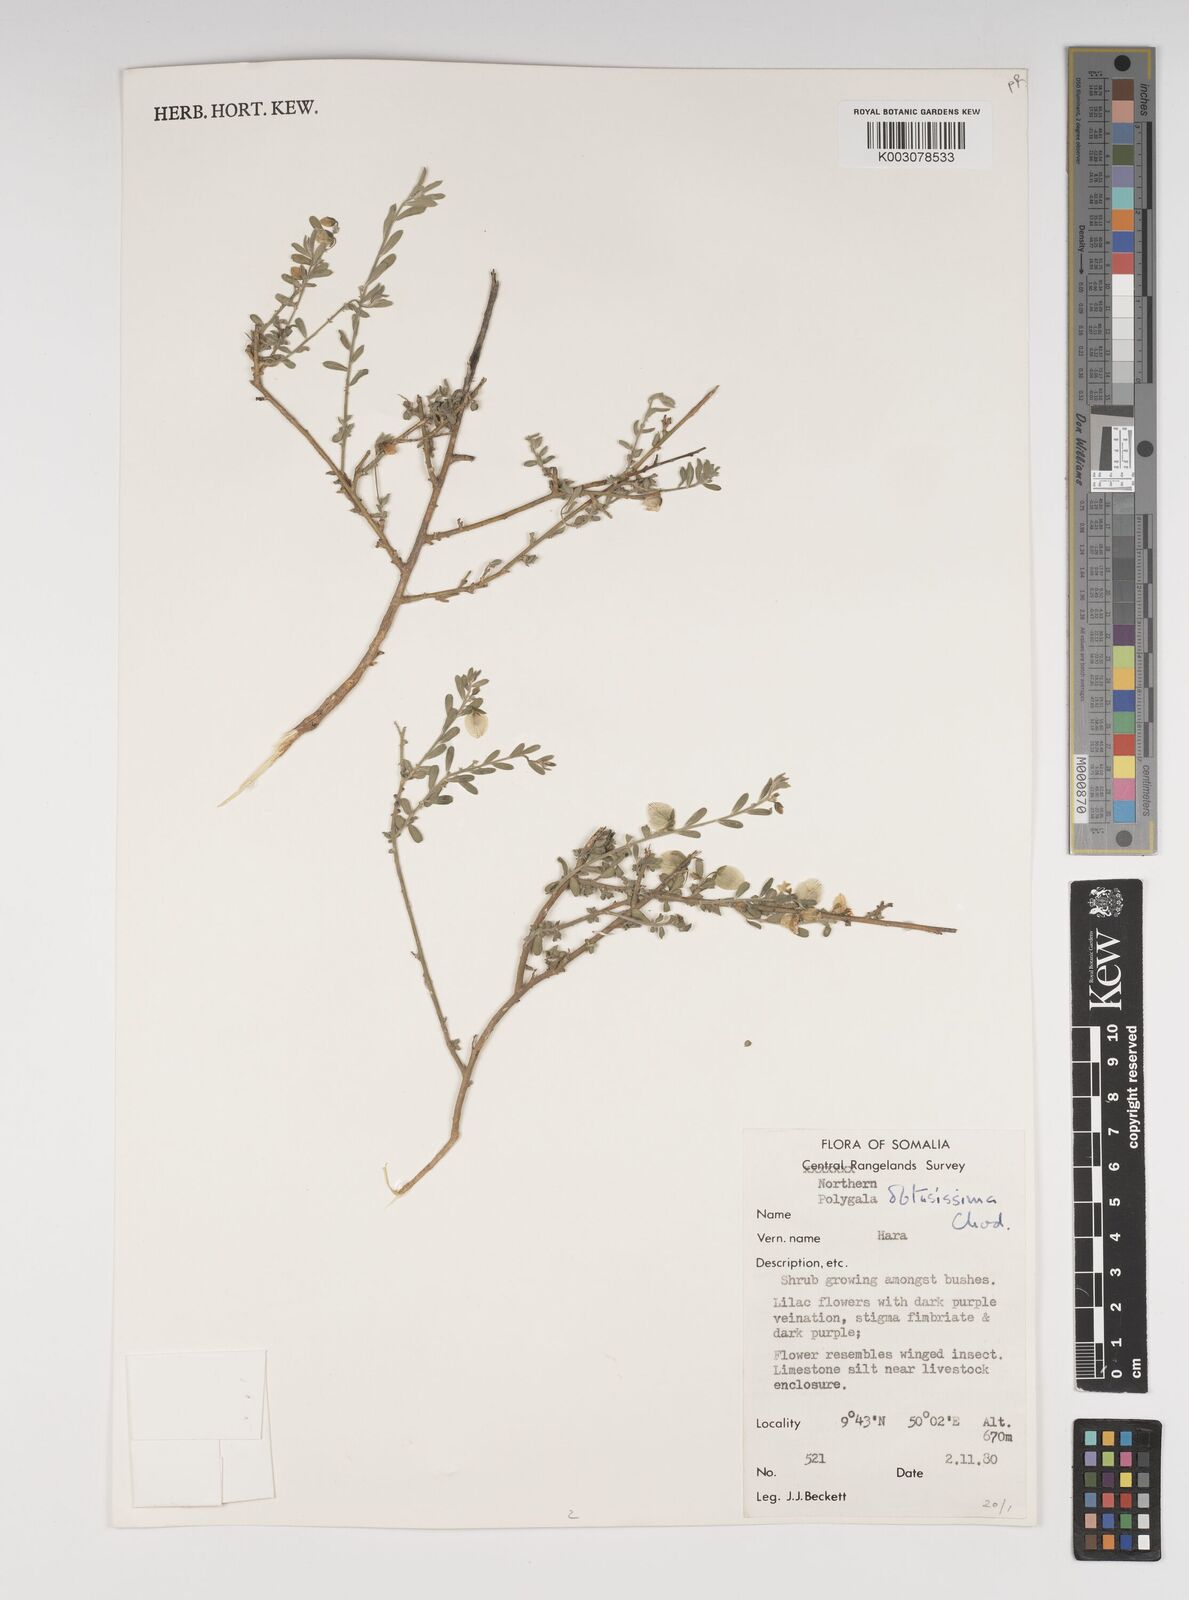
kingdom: Plantae
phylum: Tracheophyta
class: Magnoliopsida
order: Fabales
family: Polygalaceae
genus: Polygala
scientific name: Polygala senensis
